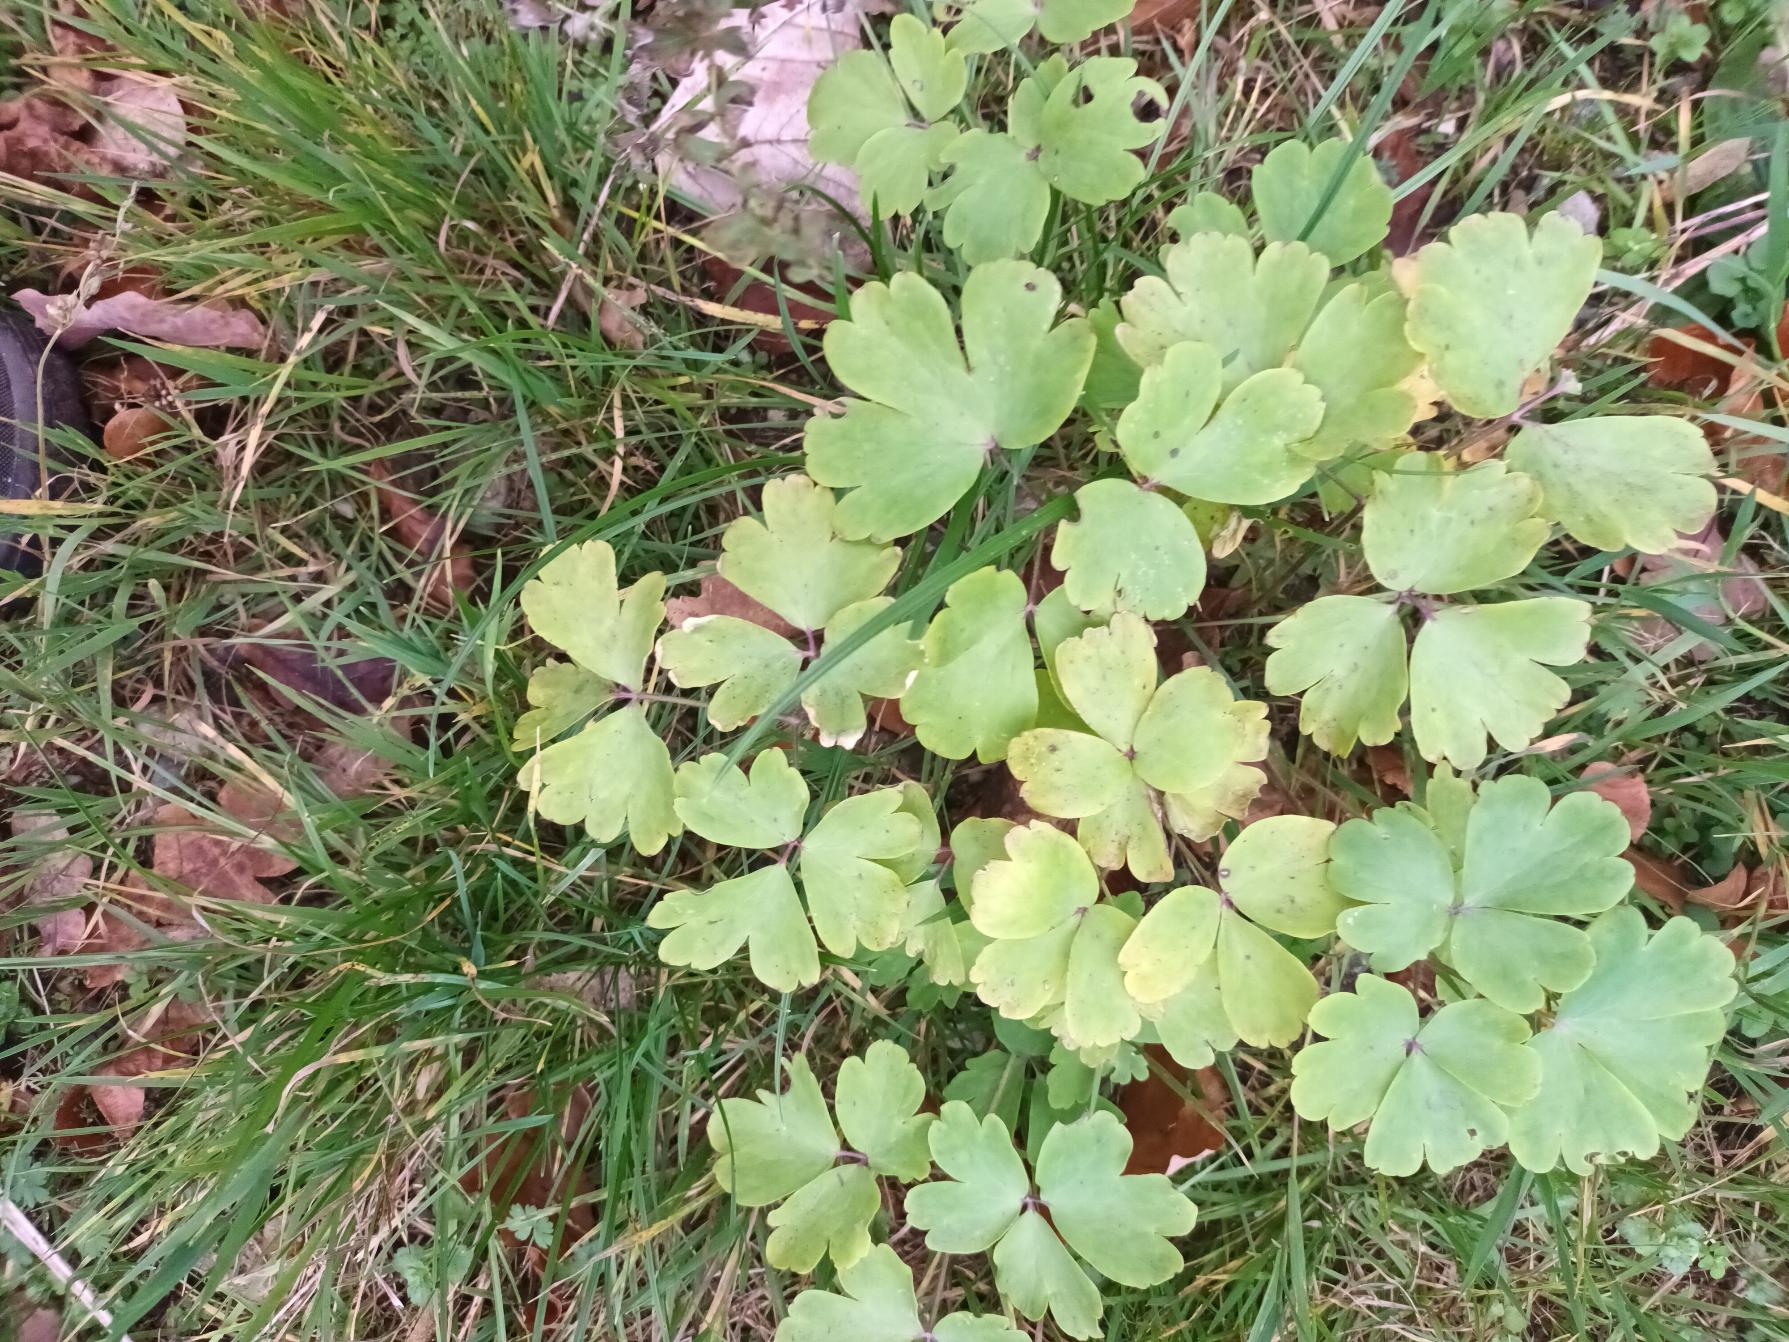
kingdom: Plantae
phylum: Tracheophyta
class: Magnoliopsida
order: Ranunculales
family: Ranunculaceae
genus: Aquilegia
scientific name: Aquilegia vulgaris
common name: Akeleje
